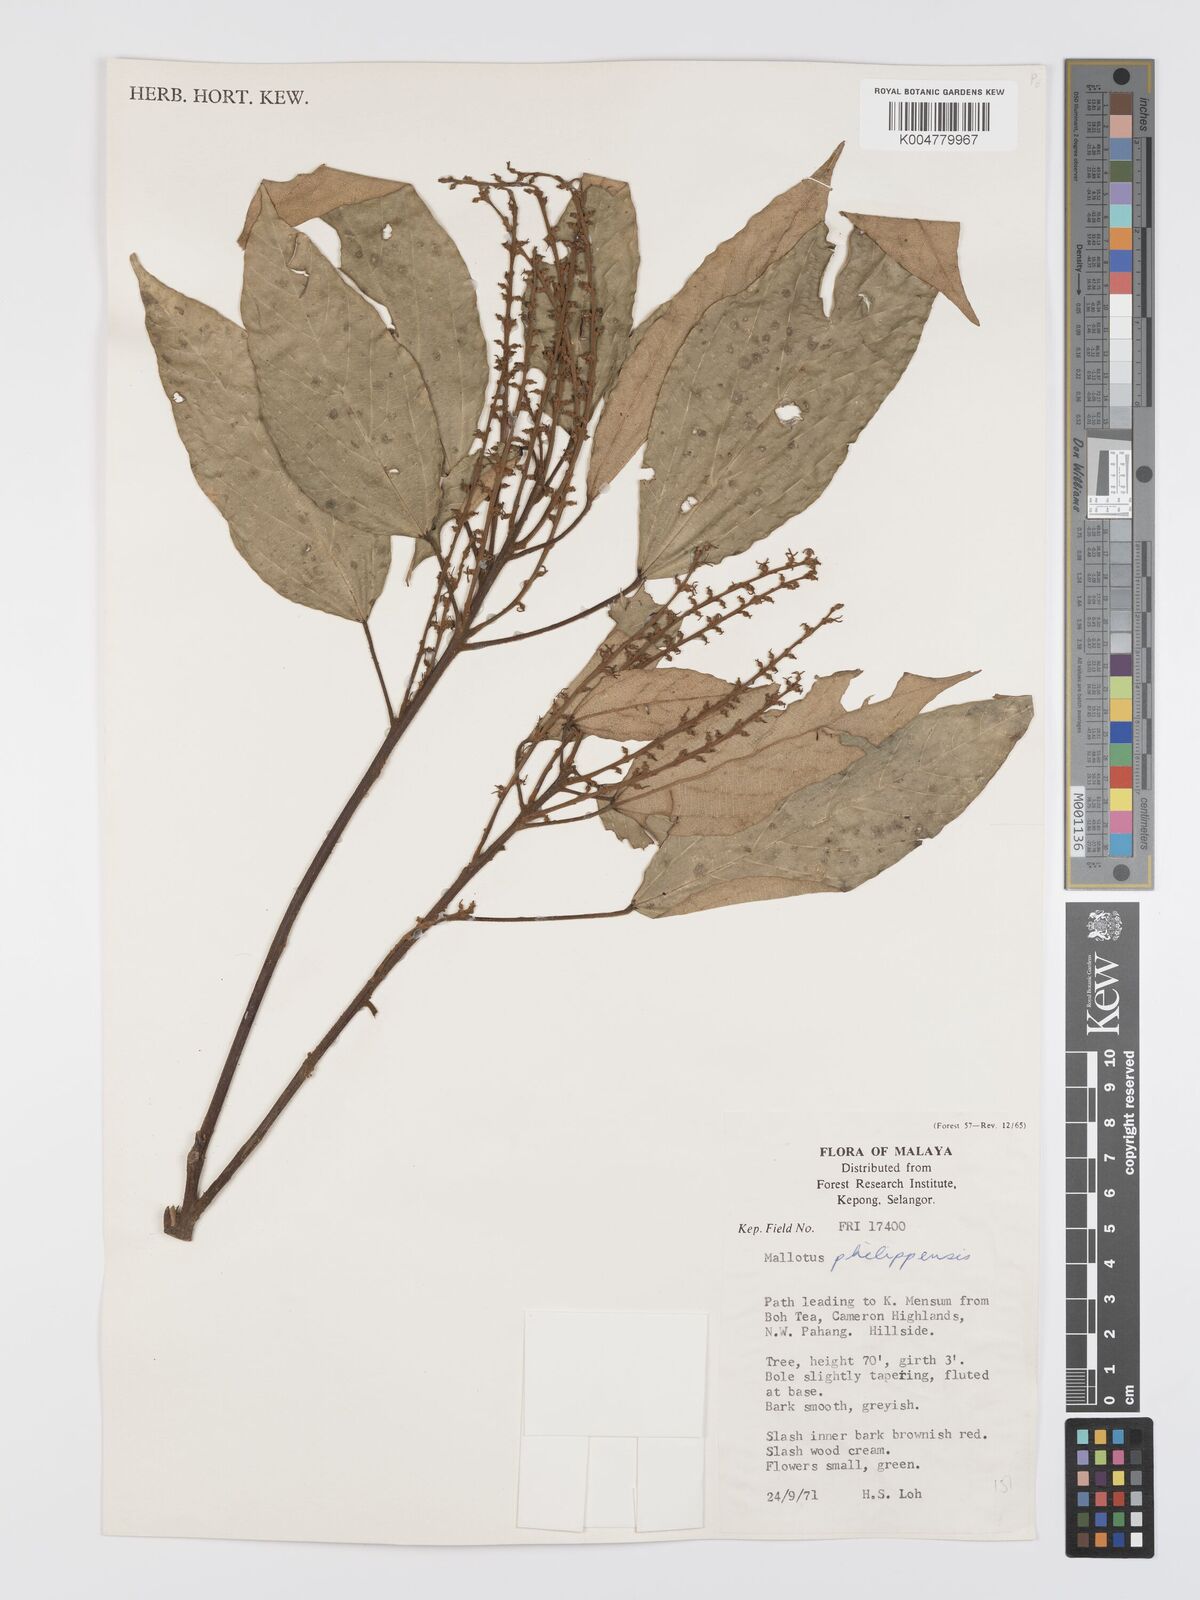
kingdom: Plantae
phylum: Tracheophyta
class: Magnoliopsida
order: Malpighiales
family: Euphorbiaceae
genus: Mallotus
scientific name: Mallotus philippensis
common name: Kamala tree
